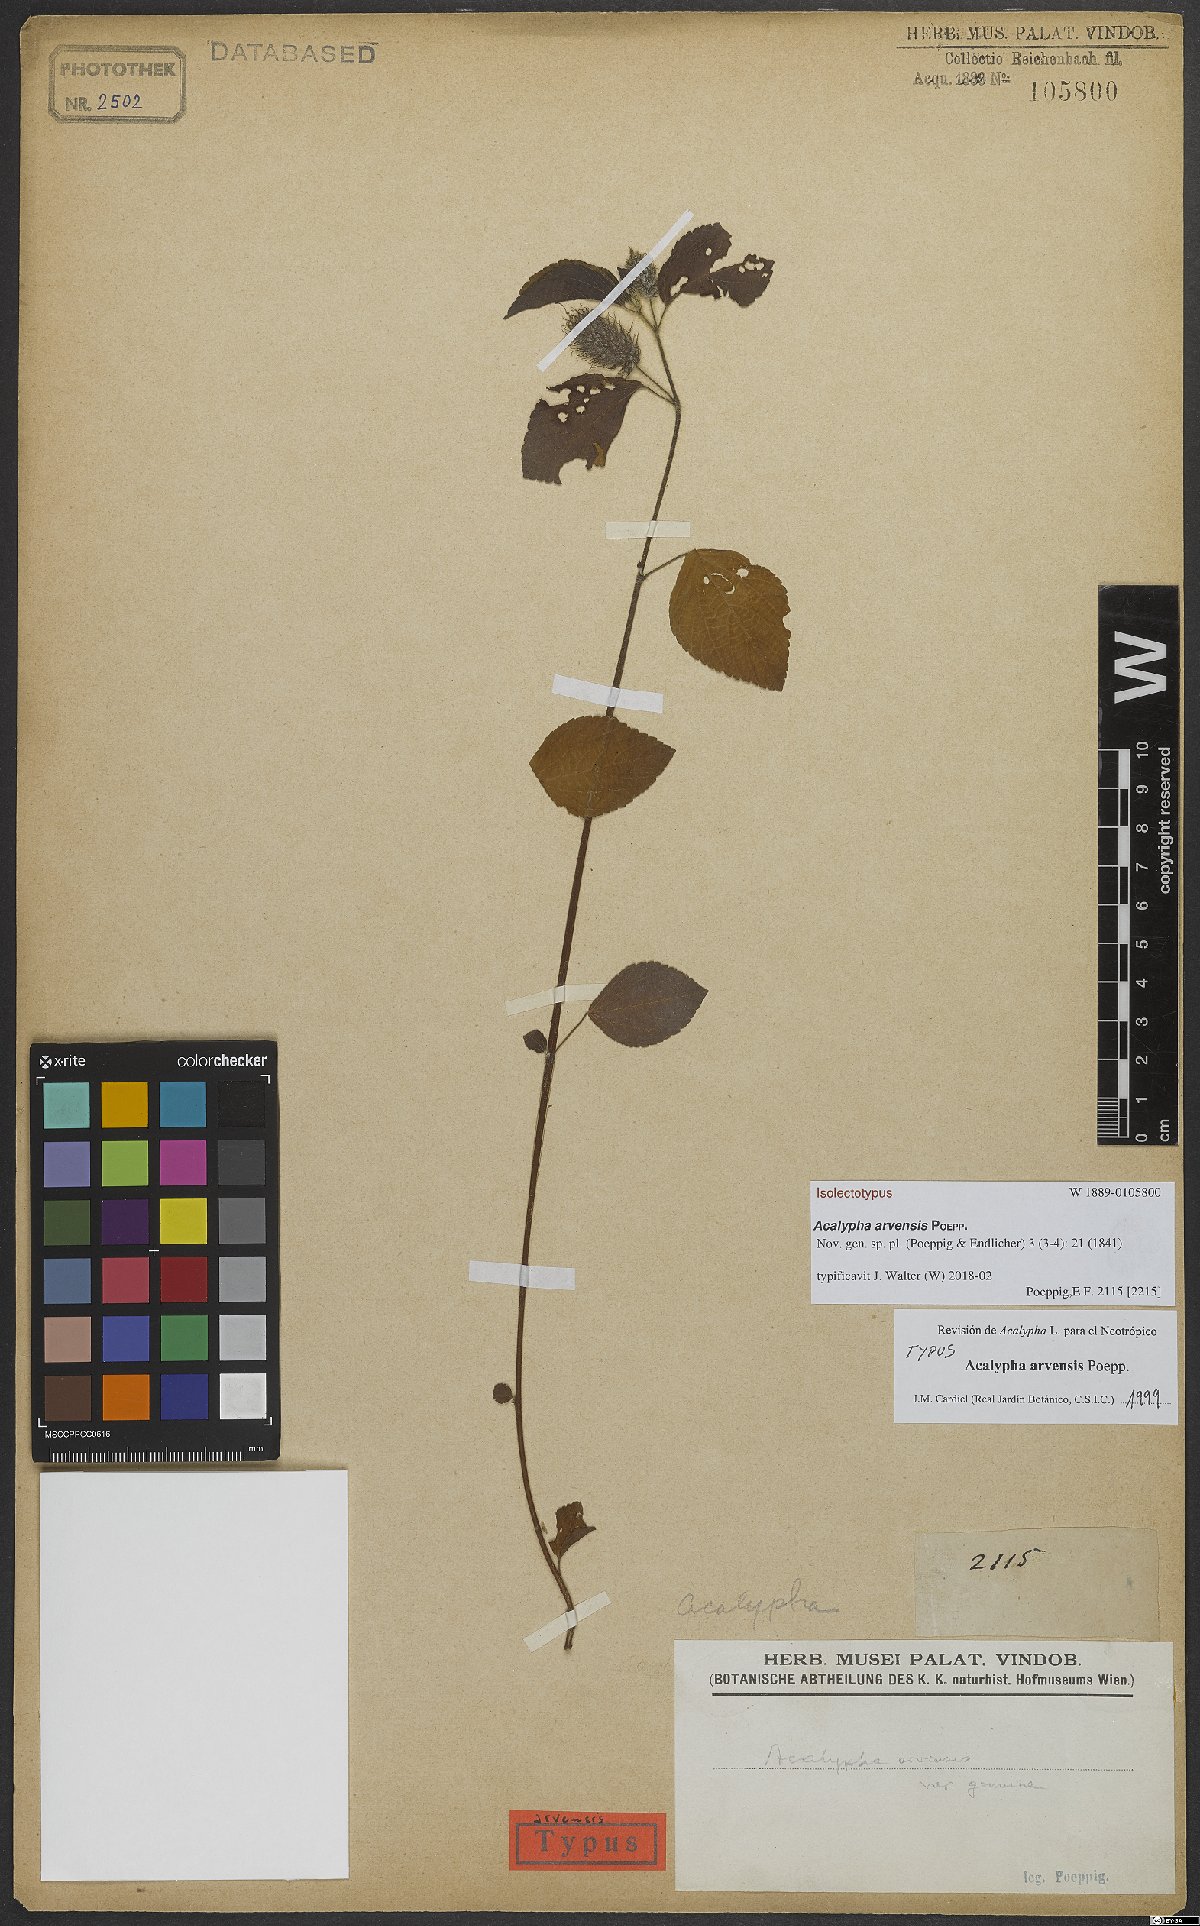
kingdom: Plantae
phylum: Tracheophyta
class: Magnoliopsida
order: Malpighiales
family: Euphorbiaceae
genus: Acalypha
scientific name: Acalypha arvensis
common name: Field copperleaf
